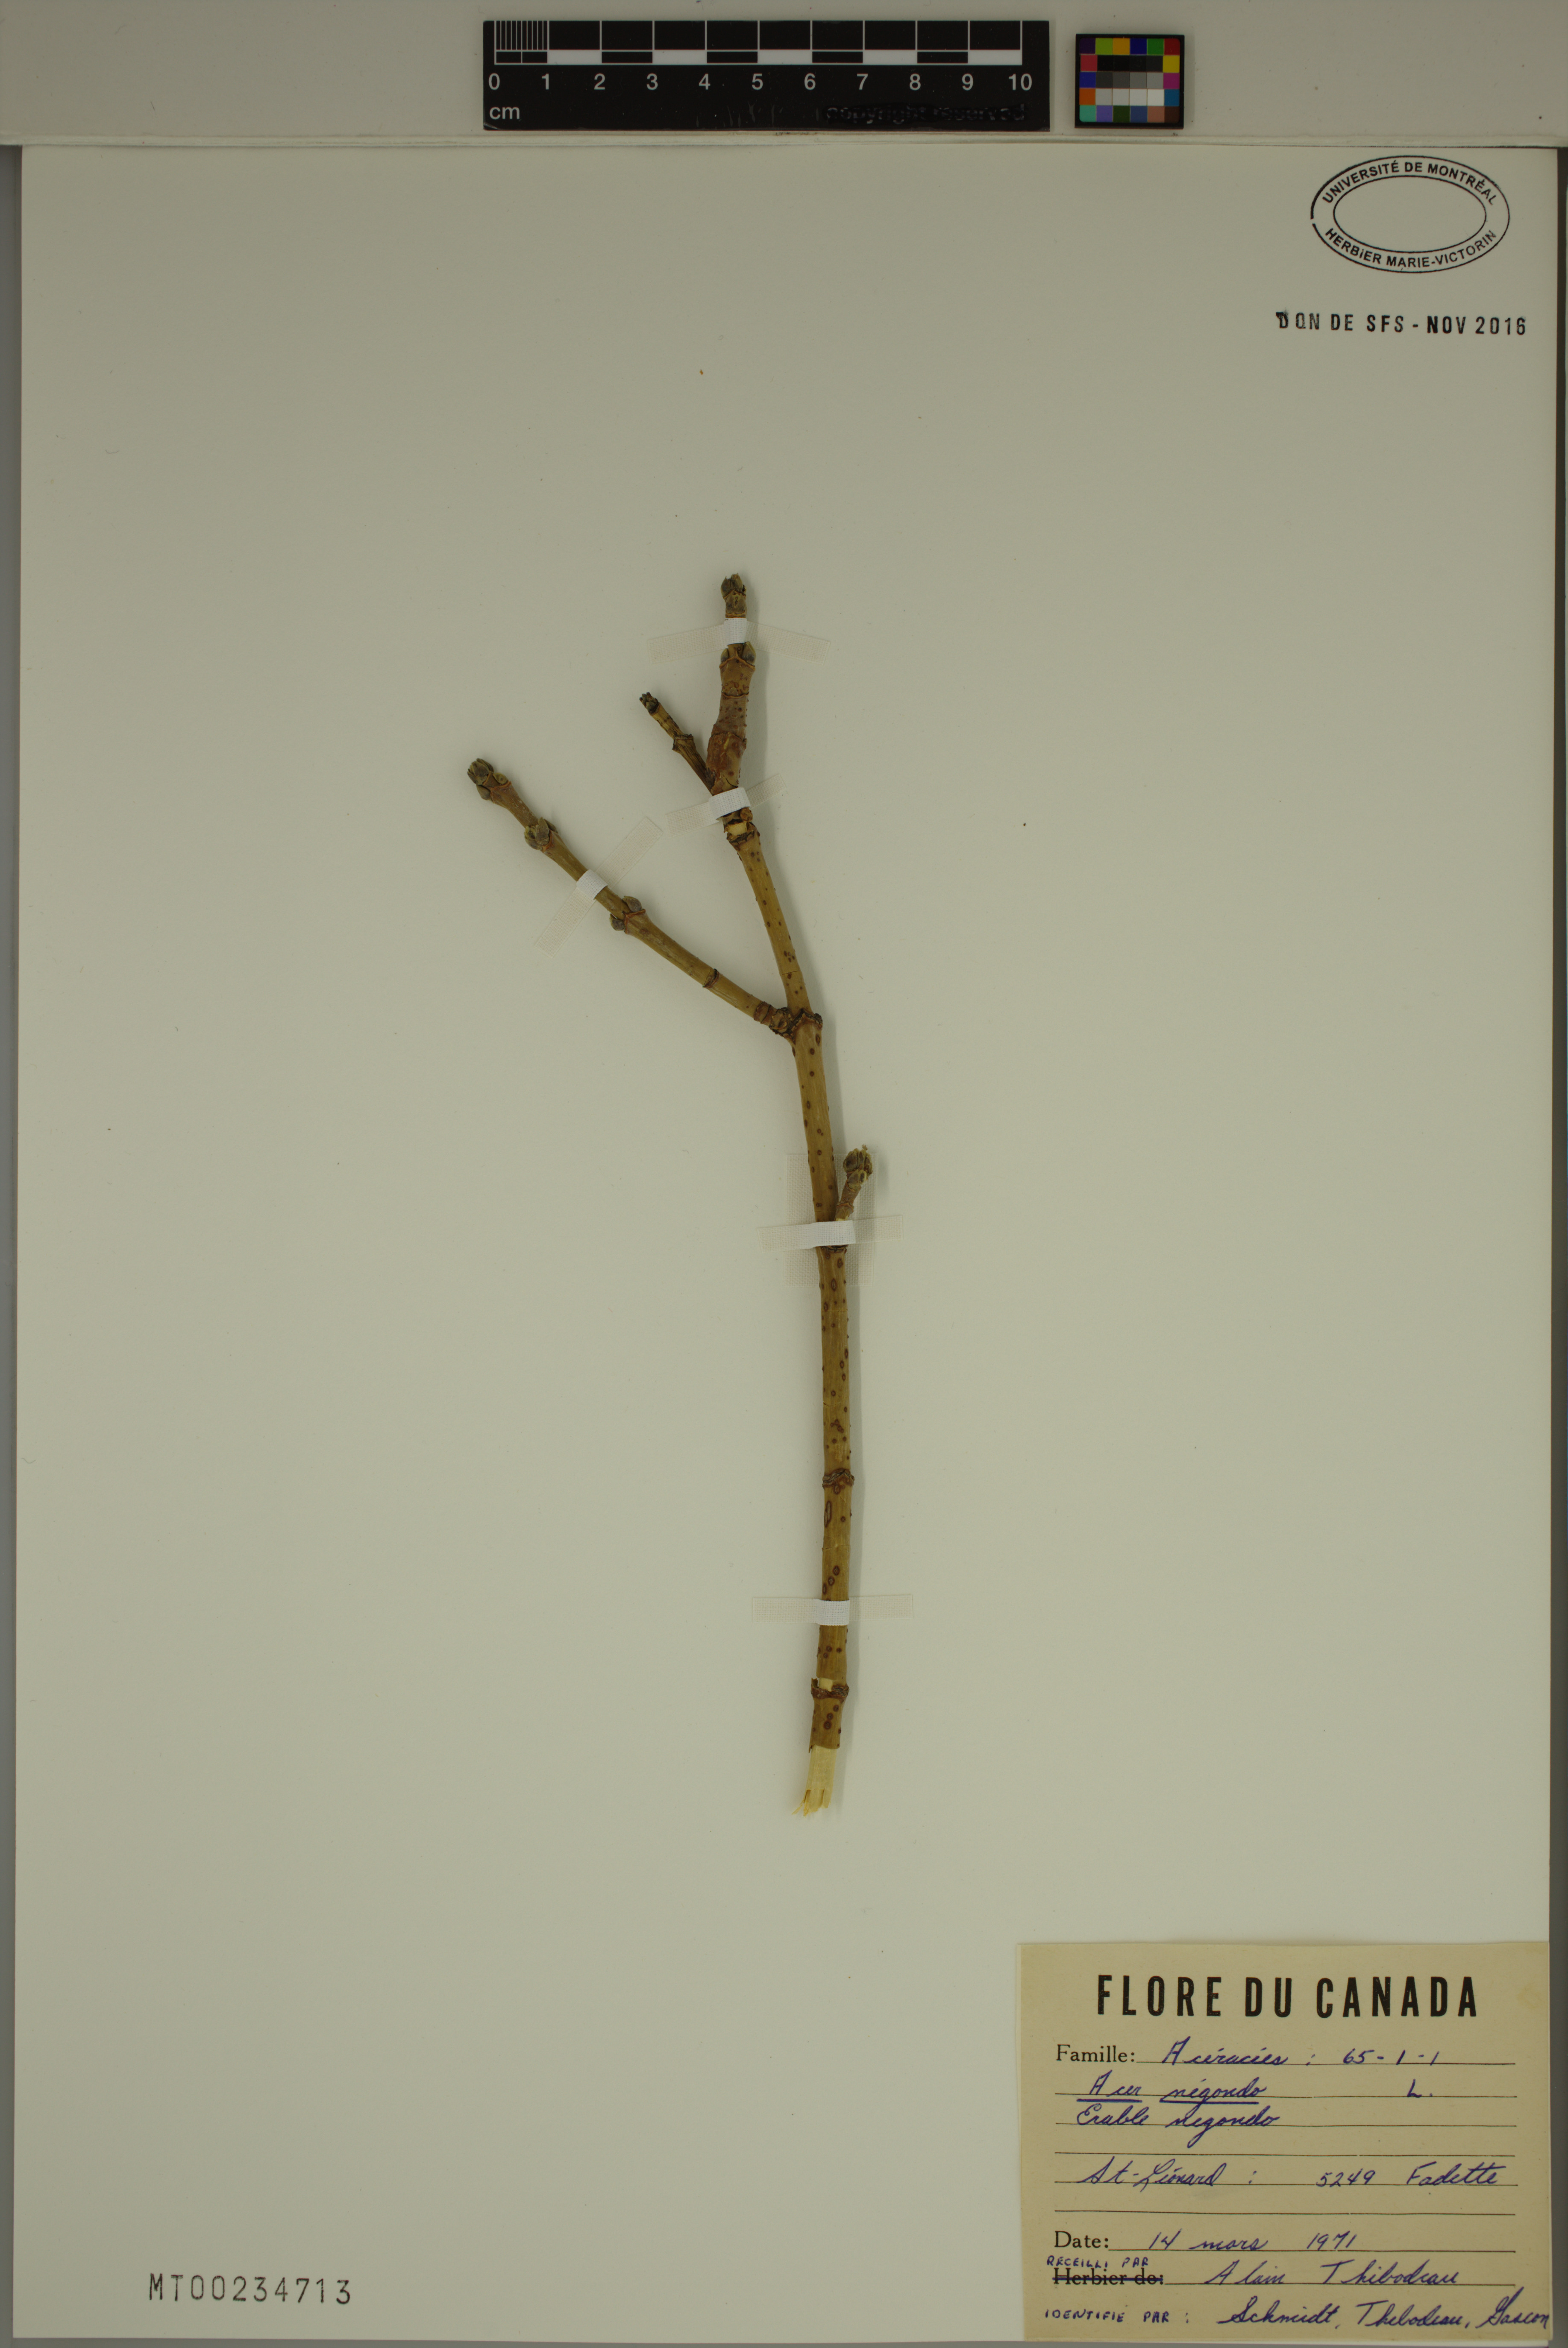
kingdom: Plantae
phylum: Tracheophyta
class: Magnoliopsida
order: Sapindales
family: Sapindaceae
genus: Acer
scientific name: Acer negundo
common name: Ashleaf maple
